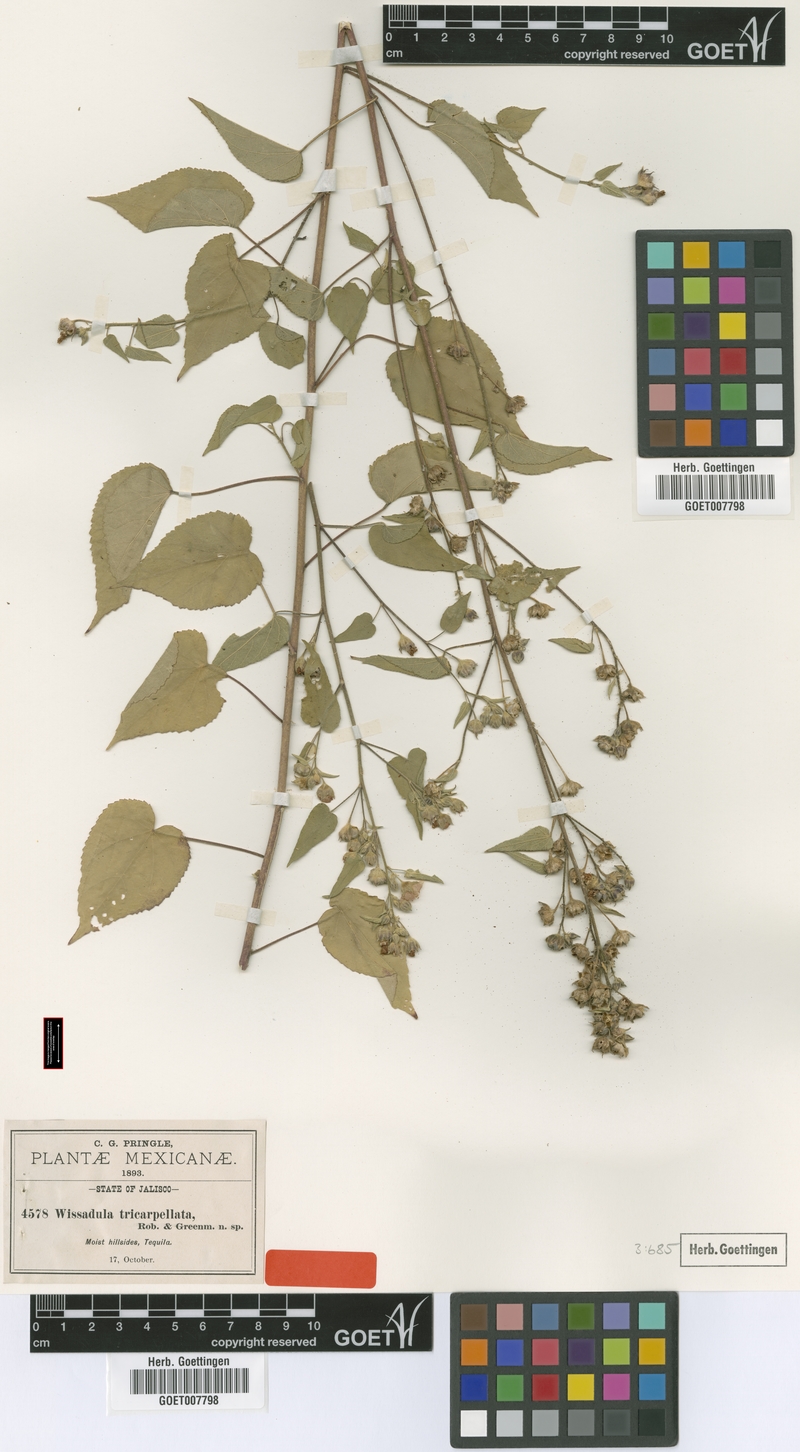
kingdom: Plantae
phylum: Tracheophyta
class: Magnoliopsida
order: Malvales
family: Malvaceae
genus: Bastardiastrum
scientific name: Bastardiastrum tricarpellatum
